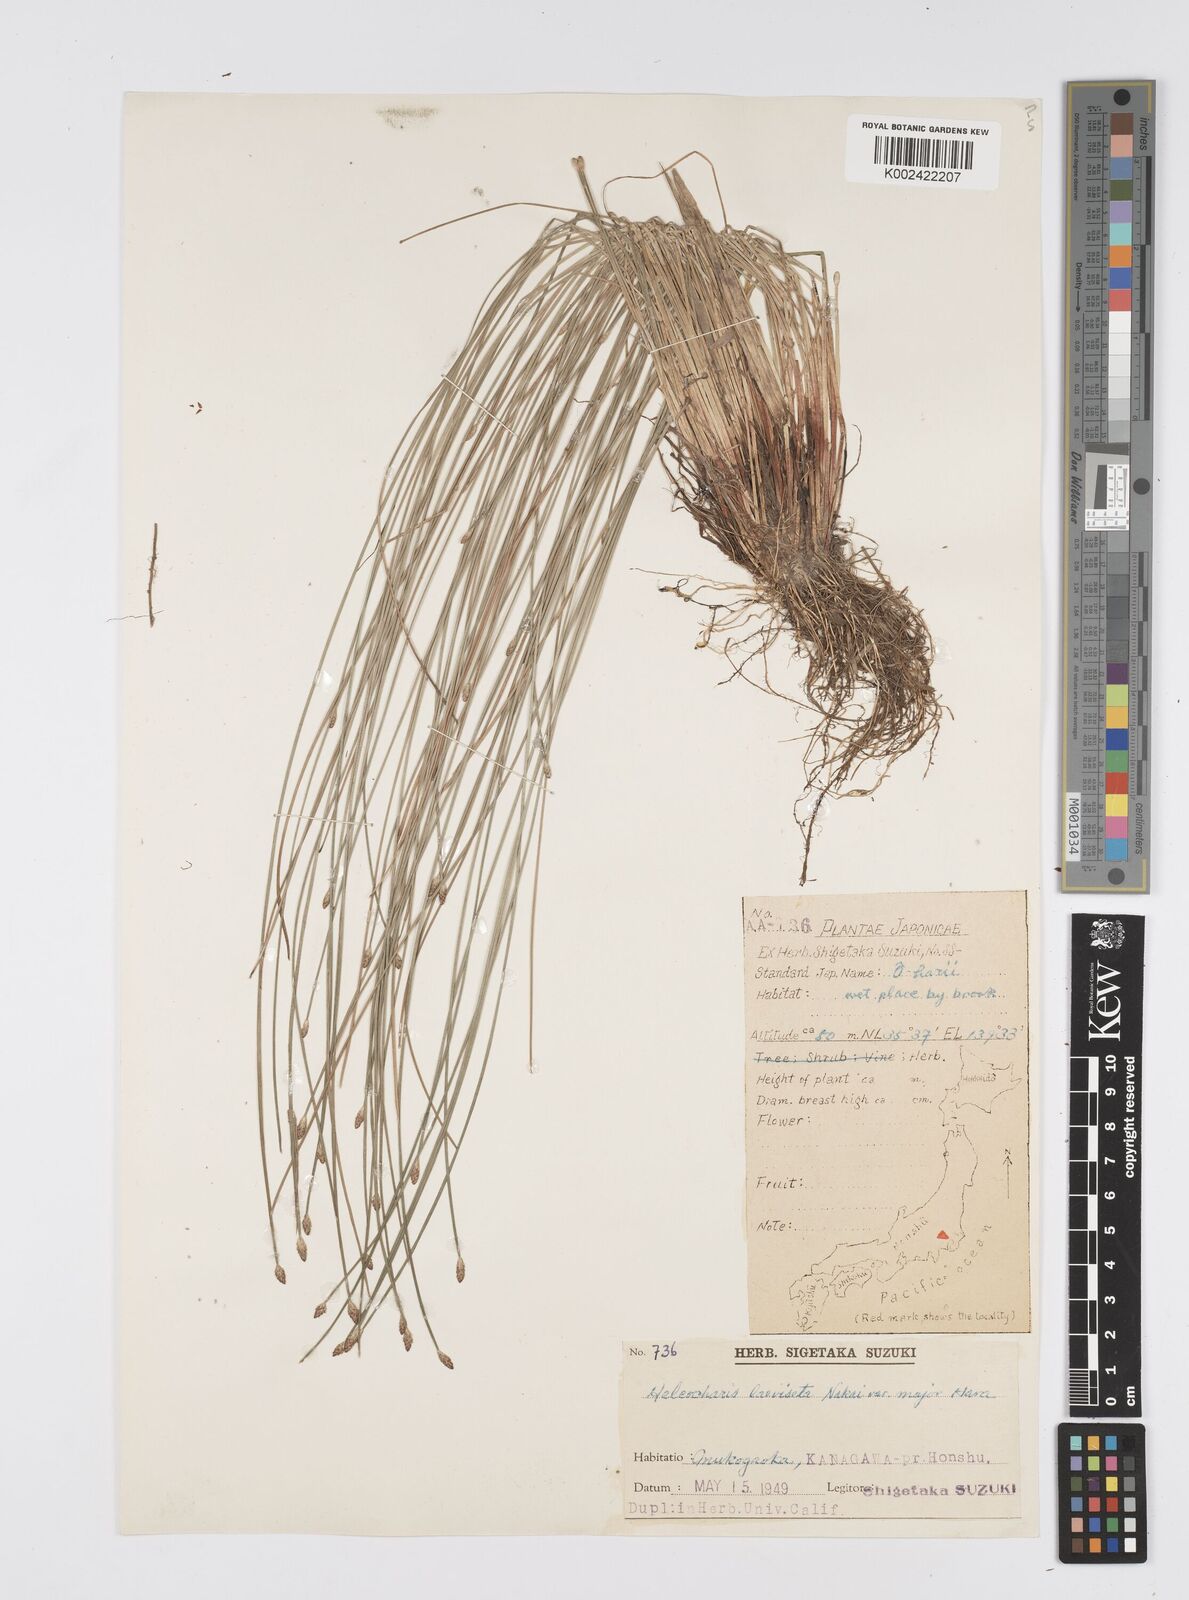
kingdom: Plantae
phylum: Tracheophyta
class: Liliopsida
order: Poales
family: Cyperaceae
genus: Eleocharis
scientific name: Eleocharis laeviseta
